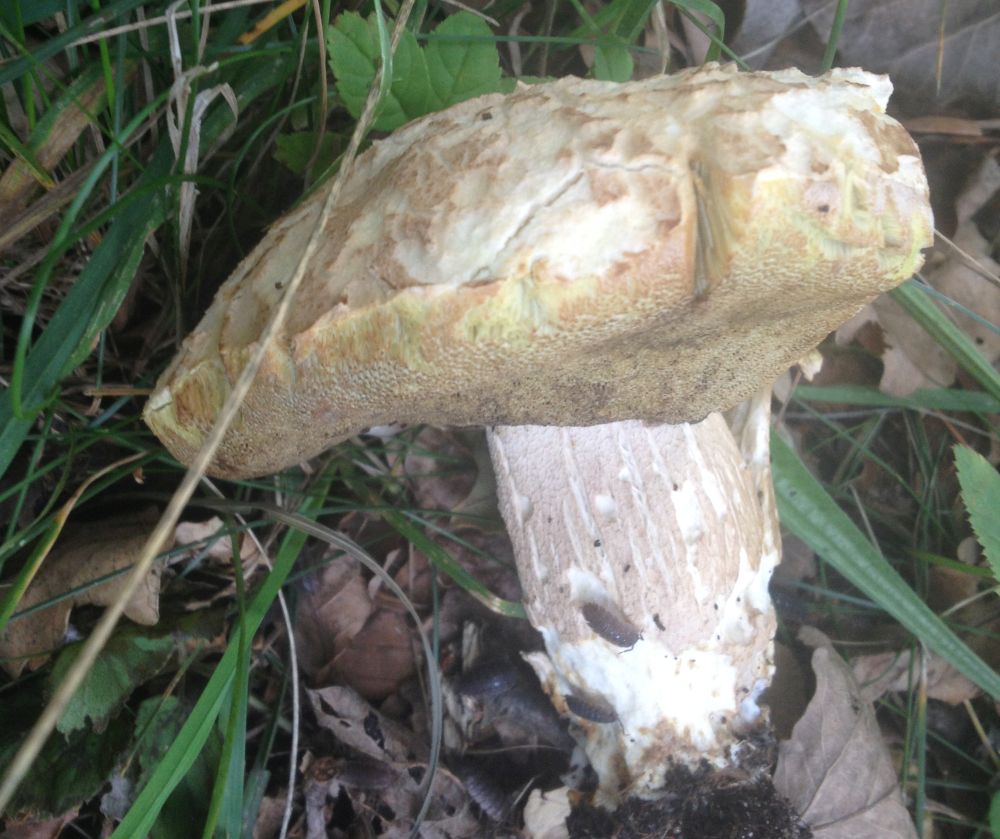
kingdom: Fungi
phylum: Basidiomycota
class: Agaricomycetes
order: Boletales
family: Boletaceae
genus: Boletus
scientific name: Boletus reticulatus
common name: sommer-rørhat
